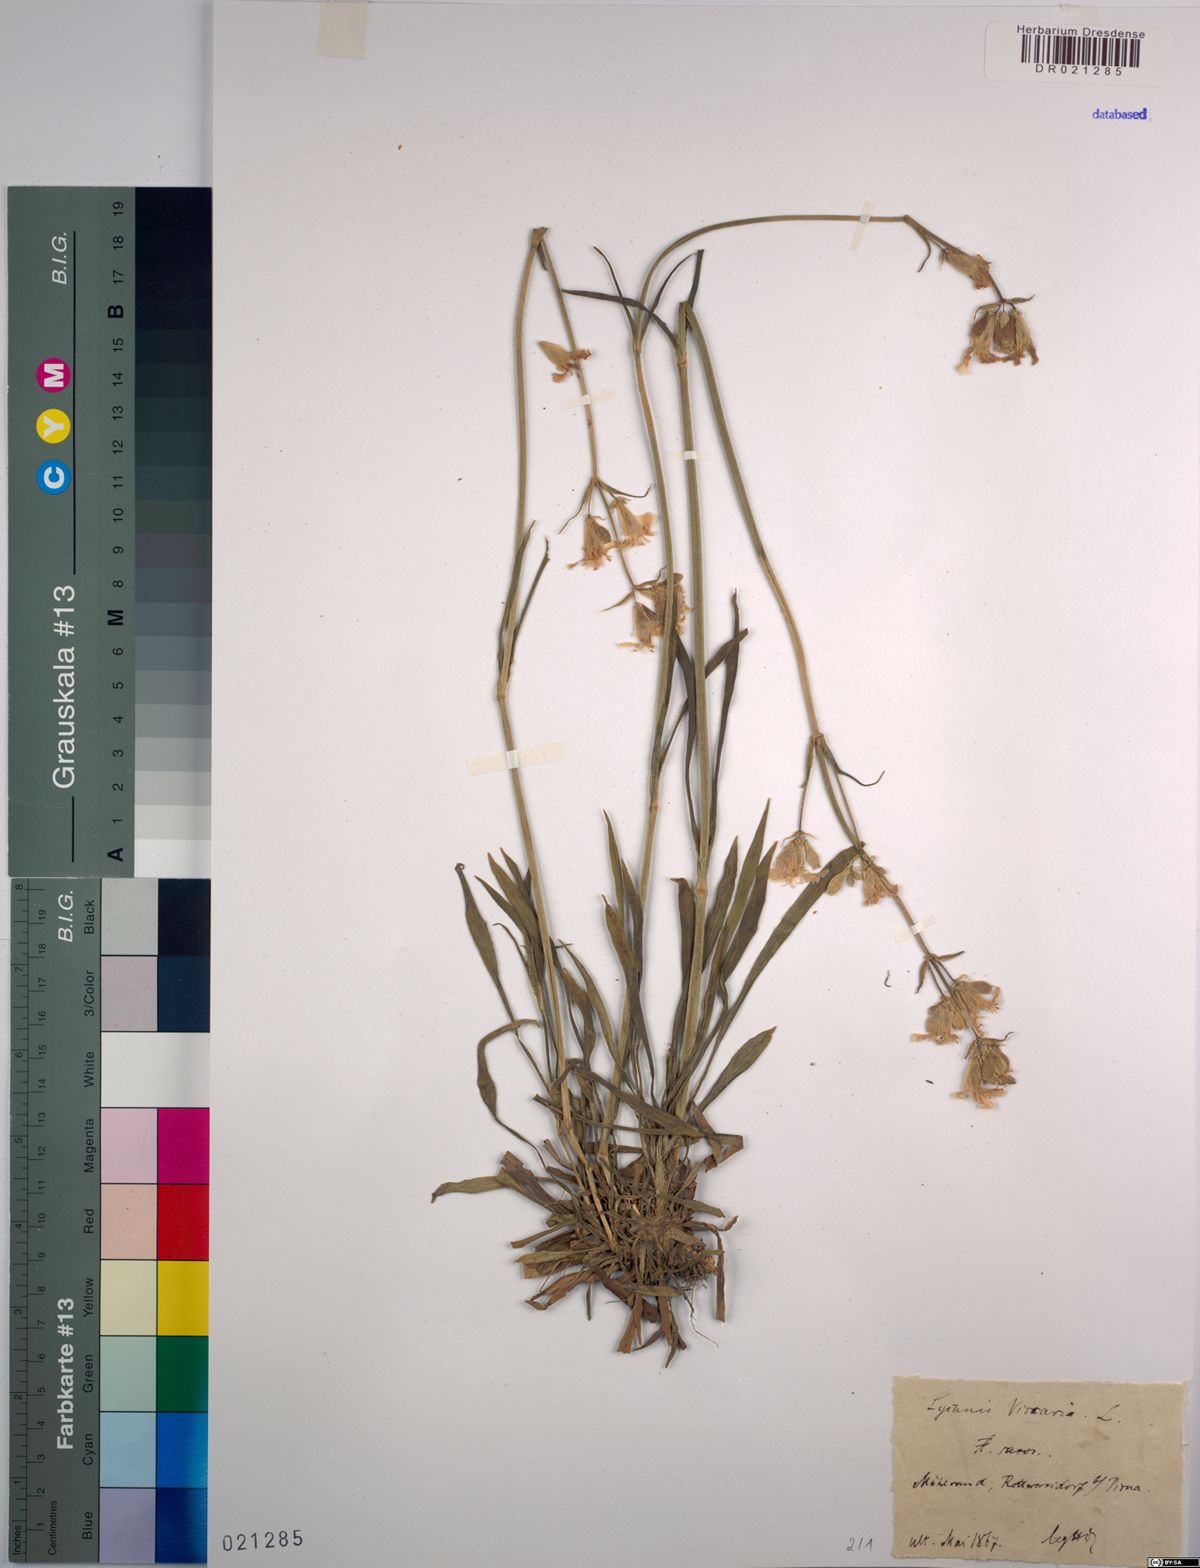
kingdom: Plantae
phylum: Tracheophyta
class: Magnoliopsida
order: Caryophyllales
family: Caryophyllaceae
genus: Viscaria
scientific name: Viscaria vulgaris
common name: Clammy campion
